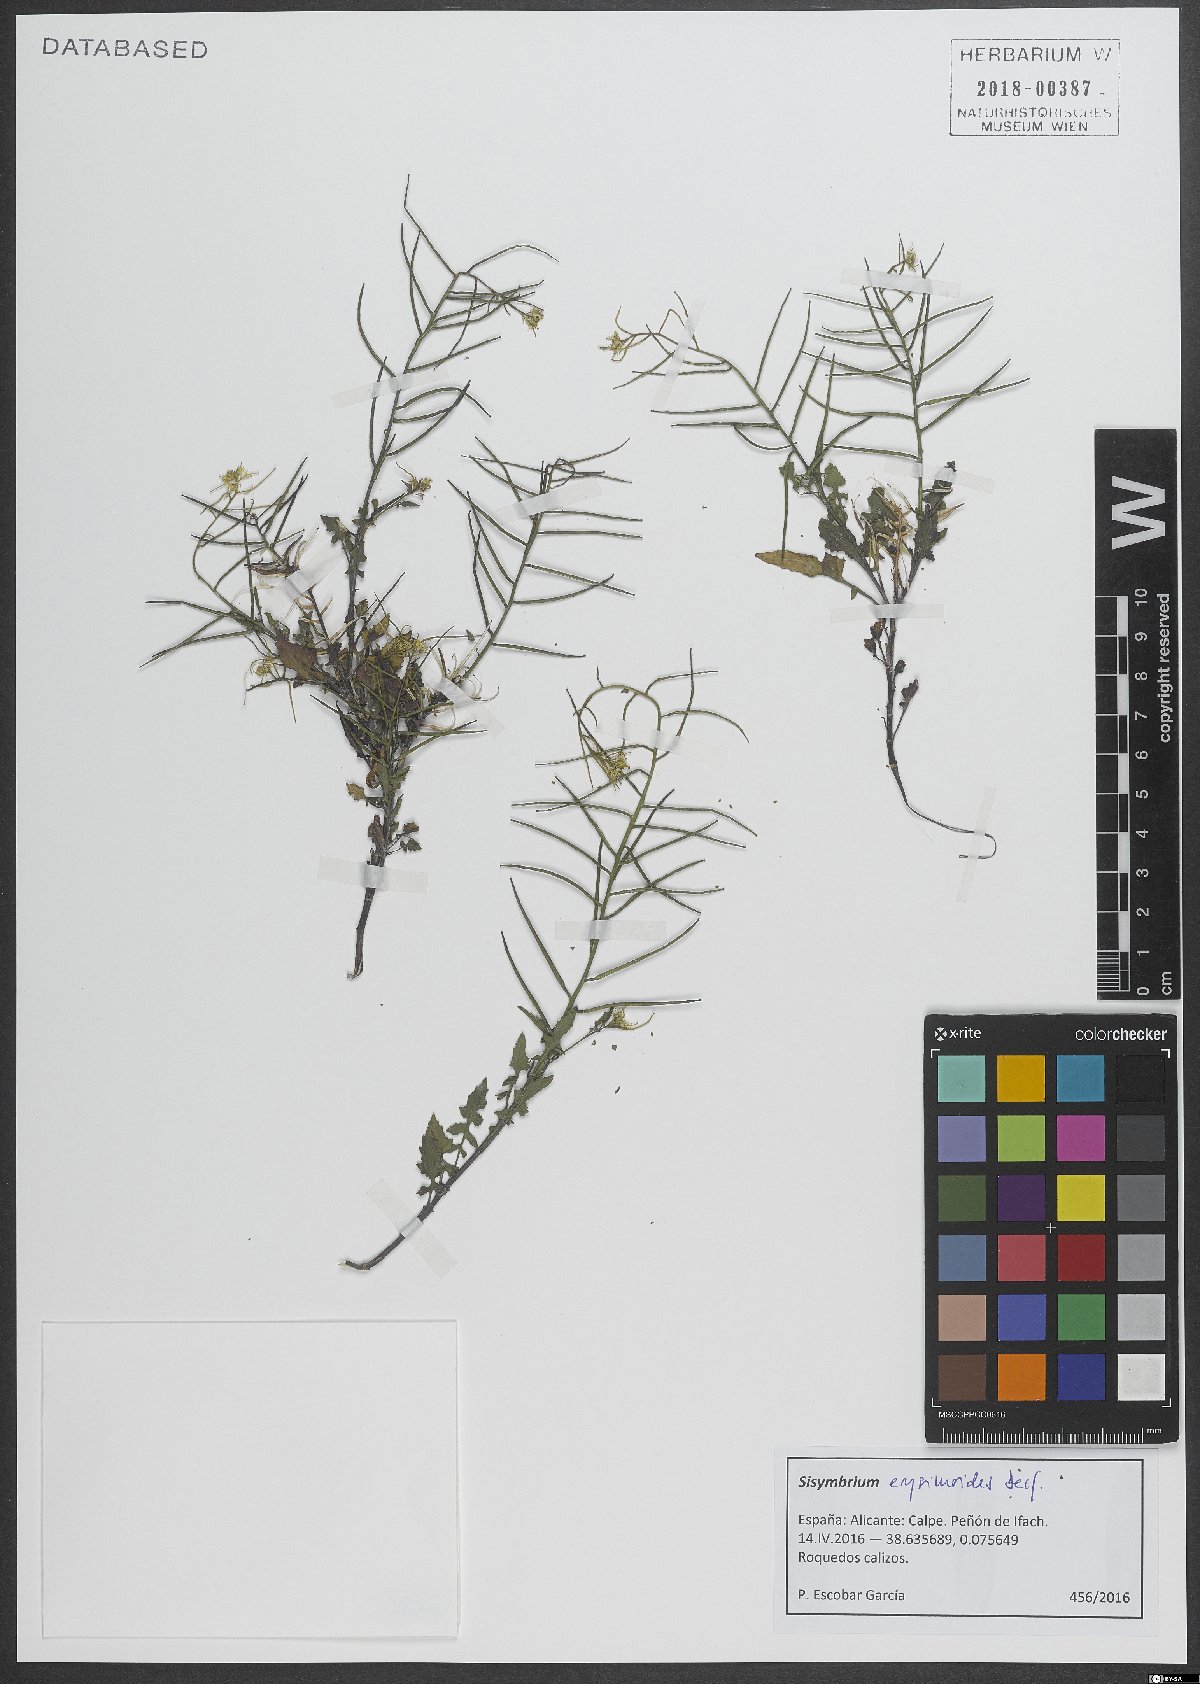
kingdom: Plantae
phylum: Tracheophyta
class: Magnoliopsida
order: Brassicales
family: Brassicaceae
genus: Sisymbrium
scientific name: Sisymbrium erysimoides
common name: French rocket
